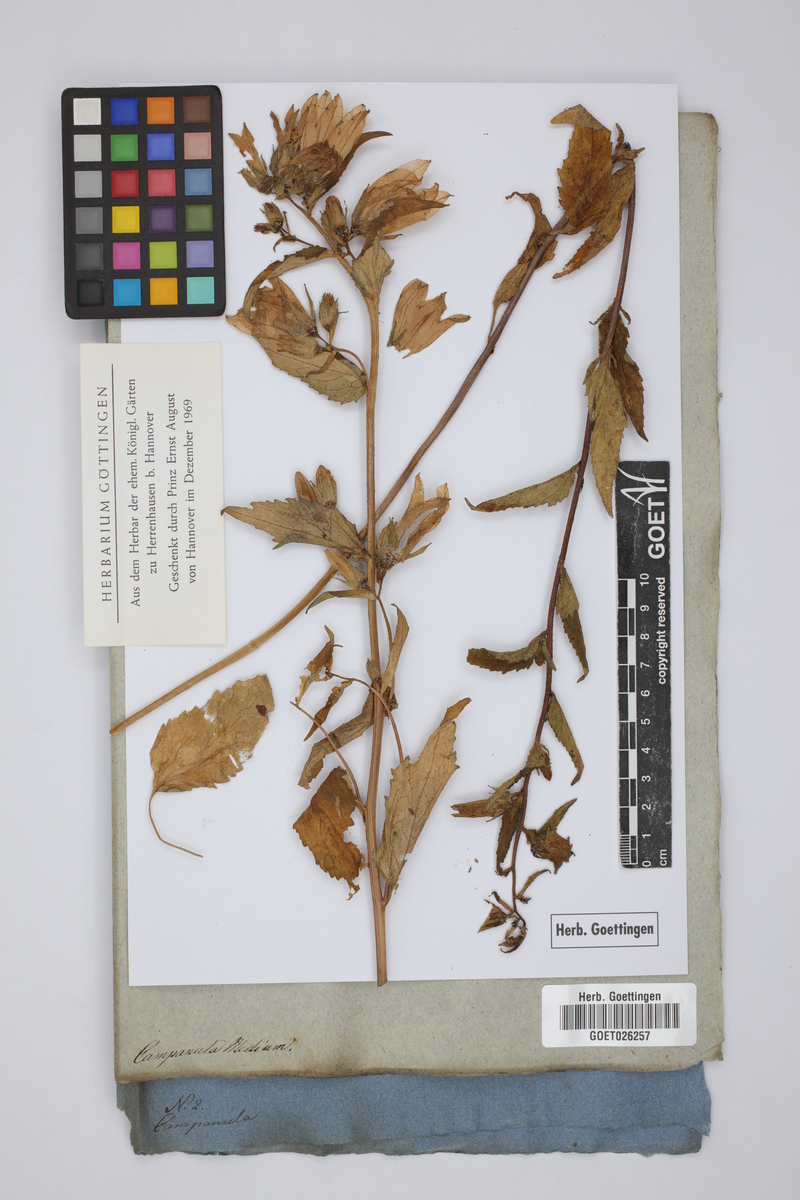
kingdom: Plantae
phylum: Tracheophyta
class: Magnoliopsida
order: Asterales
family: Campanulaceae
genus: Campanula
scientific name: Campanula medium
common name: Canterbury bells
